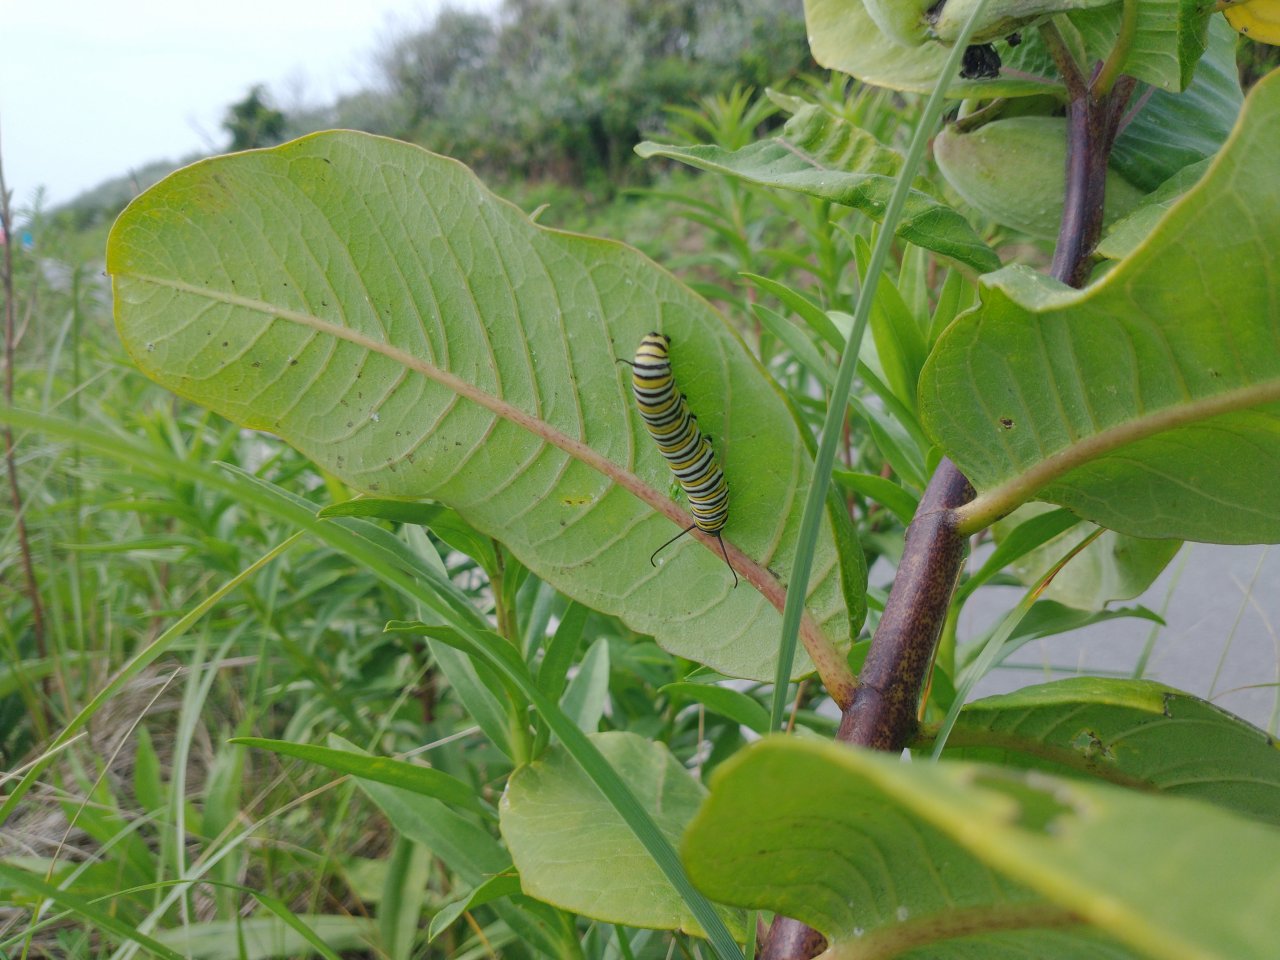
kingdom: Animalia
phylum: Arthropoda
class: Insecta
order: Lepidoptera
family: Nymphalidae
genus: Danaus
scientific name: Danaus plexippus
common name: Monarch
